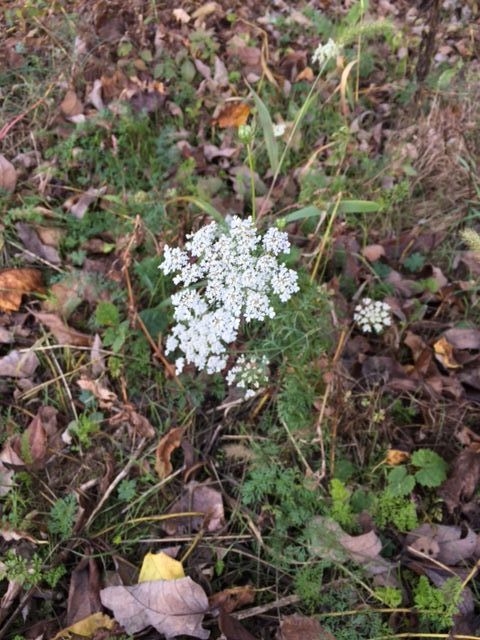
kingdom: Plantae
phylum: Tracheophyta
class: Magnoliopsida
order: Apiales
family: Apiaceae
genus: Daucus
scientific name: Daucus carota
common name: Wild Carrot
